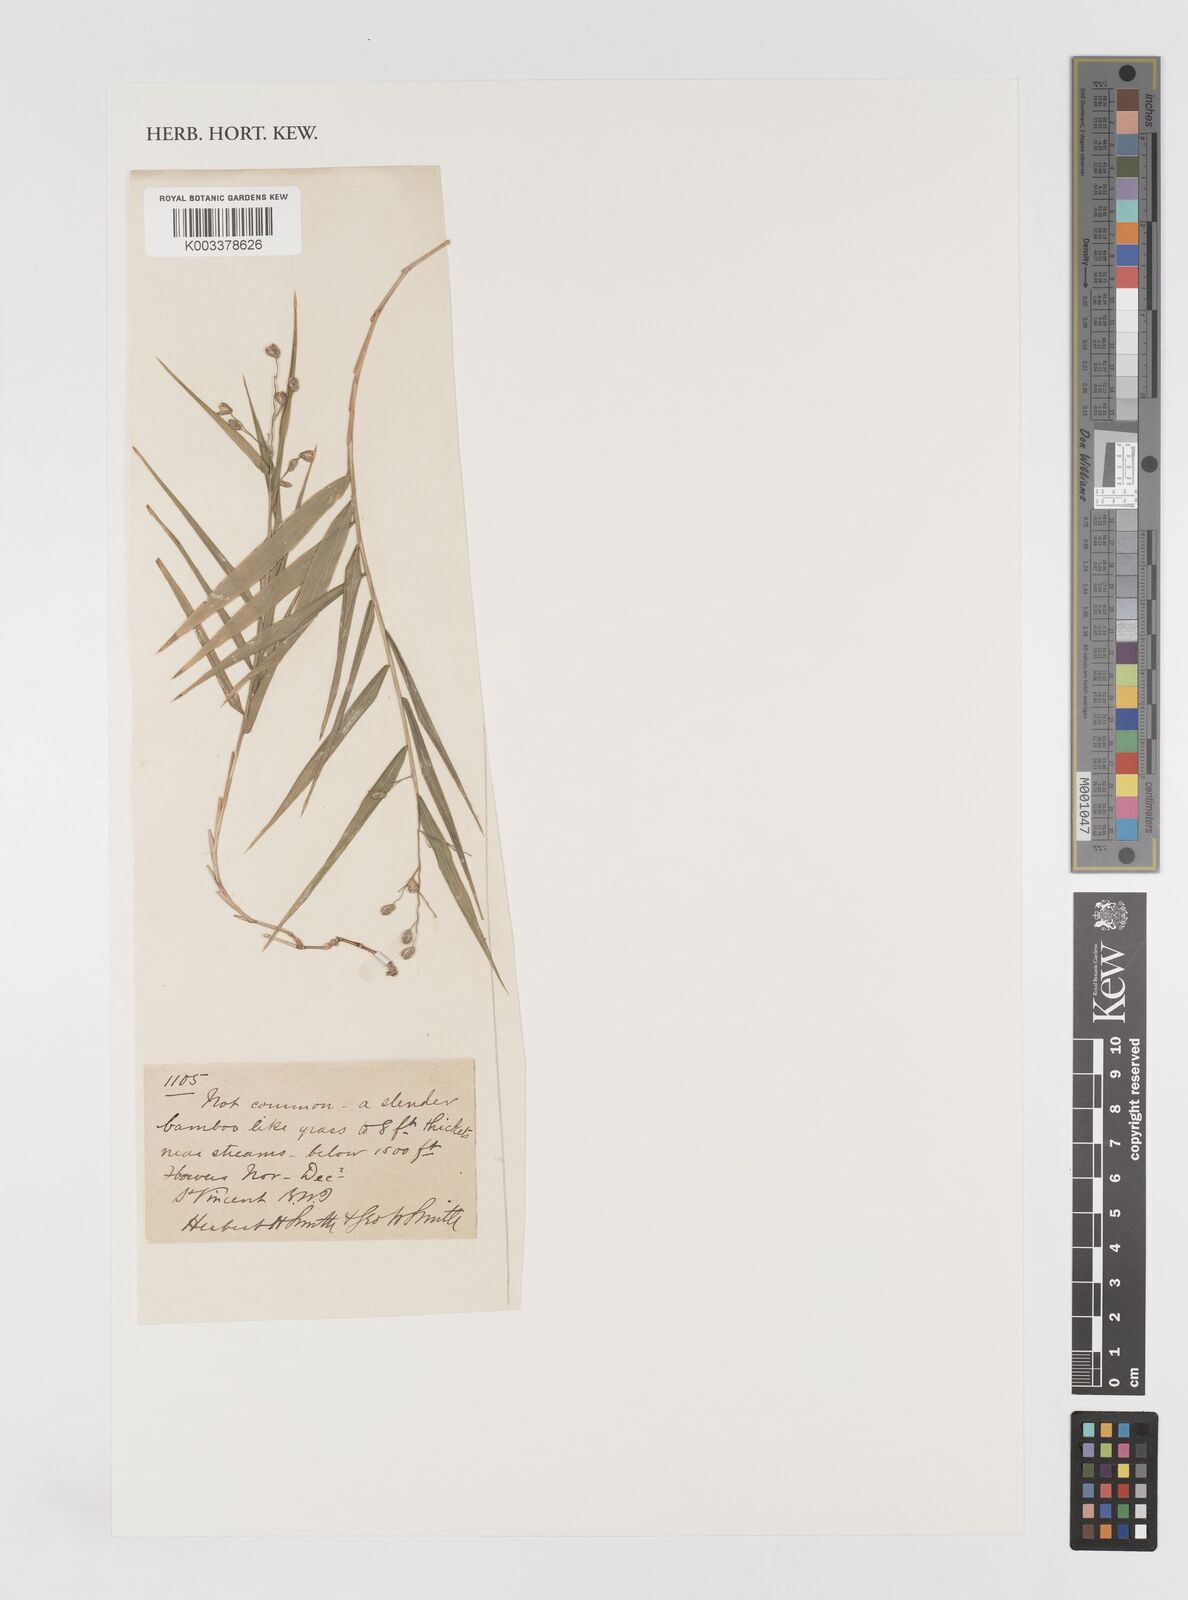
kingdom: Plantae
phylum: Tracheophyta
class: Liliopsida
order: Poales
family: Poaceae
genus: Lasiacis
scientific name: Lasiacis
